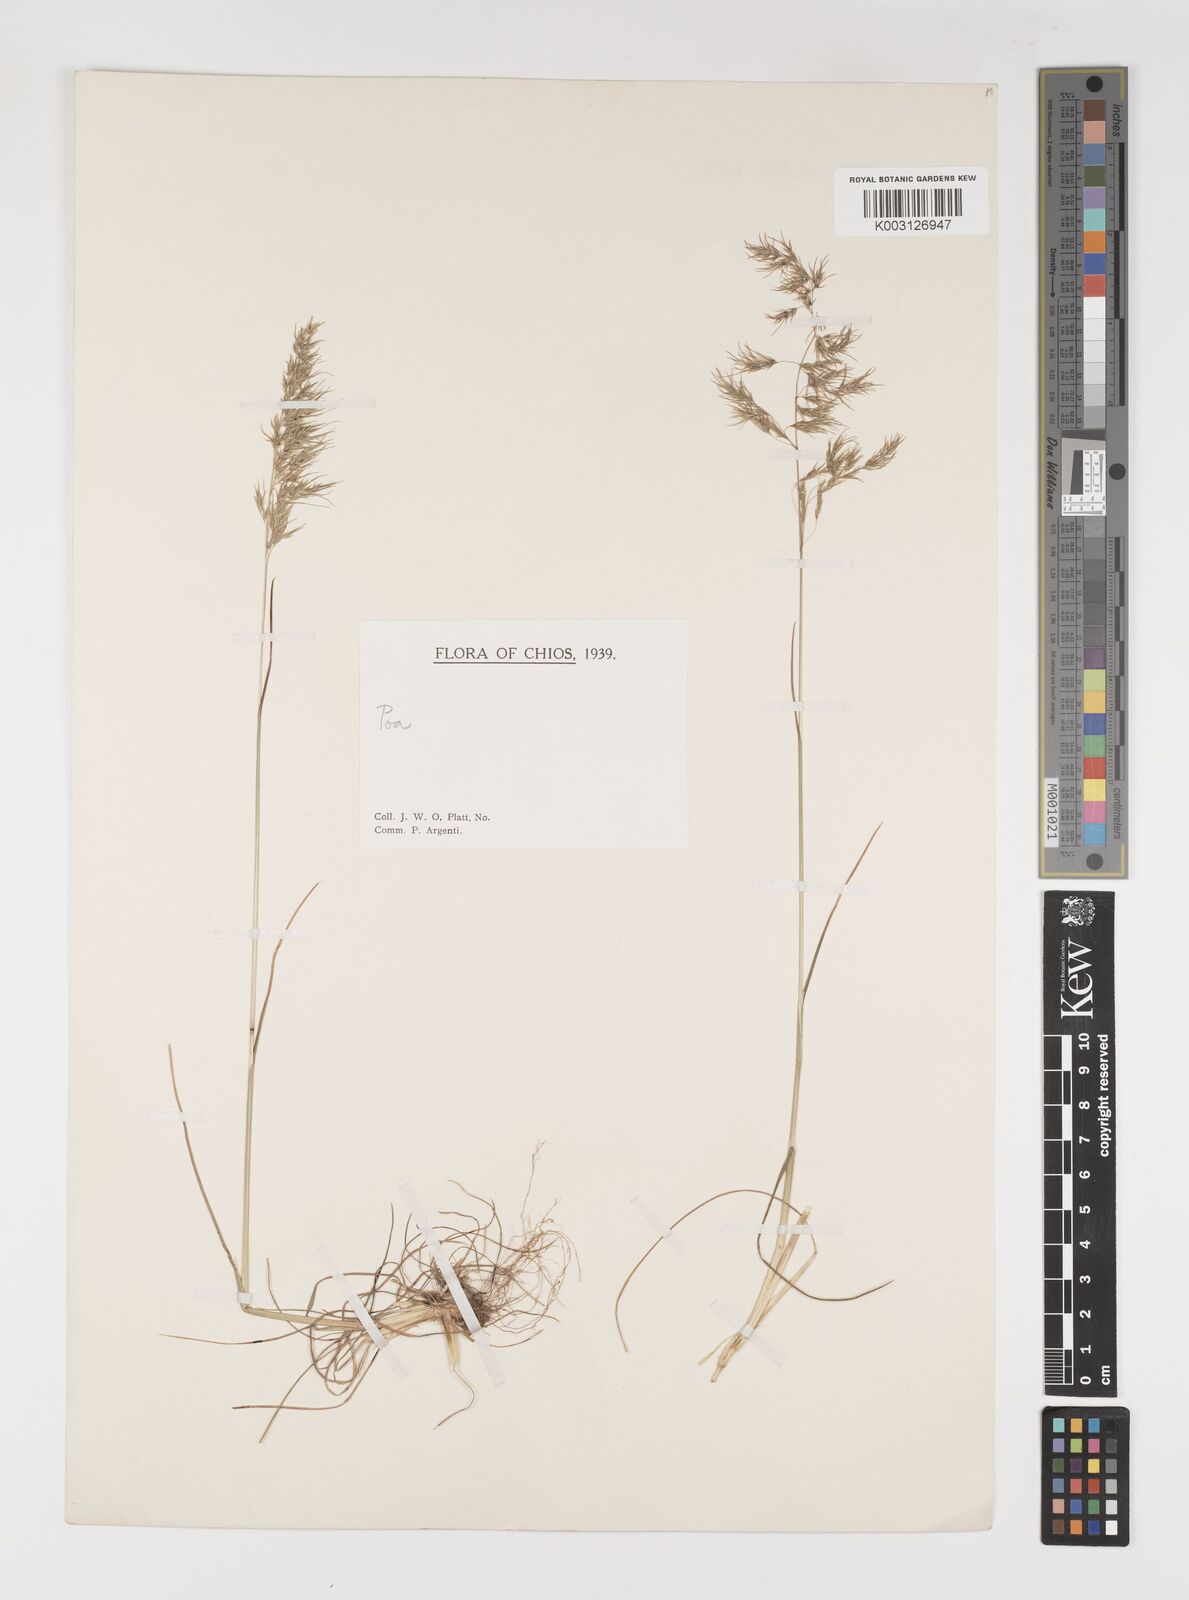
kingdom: Plantae
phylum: Tracheophyta
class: Liliopsida
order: Poales
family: Poaceae
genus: Poa
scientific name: Poa bulbosa
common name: Bulbous bluegrass
